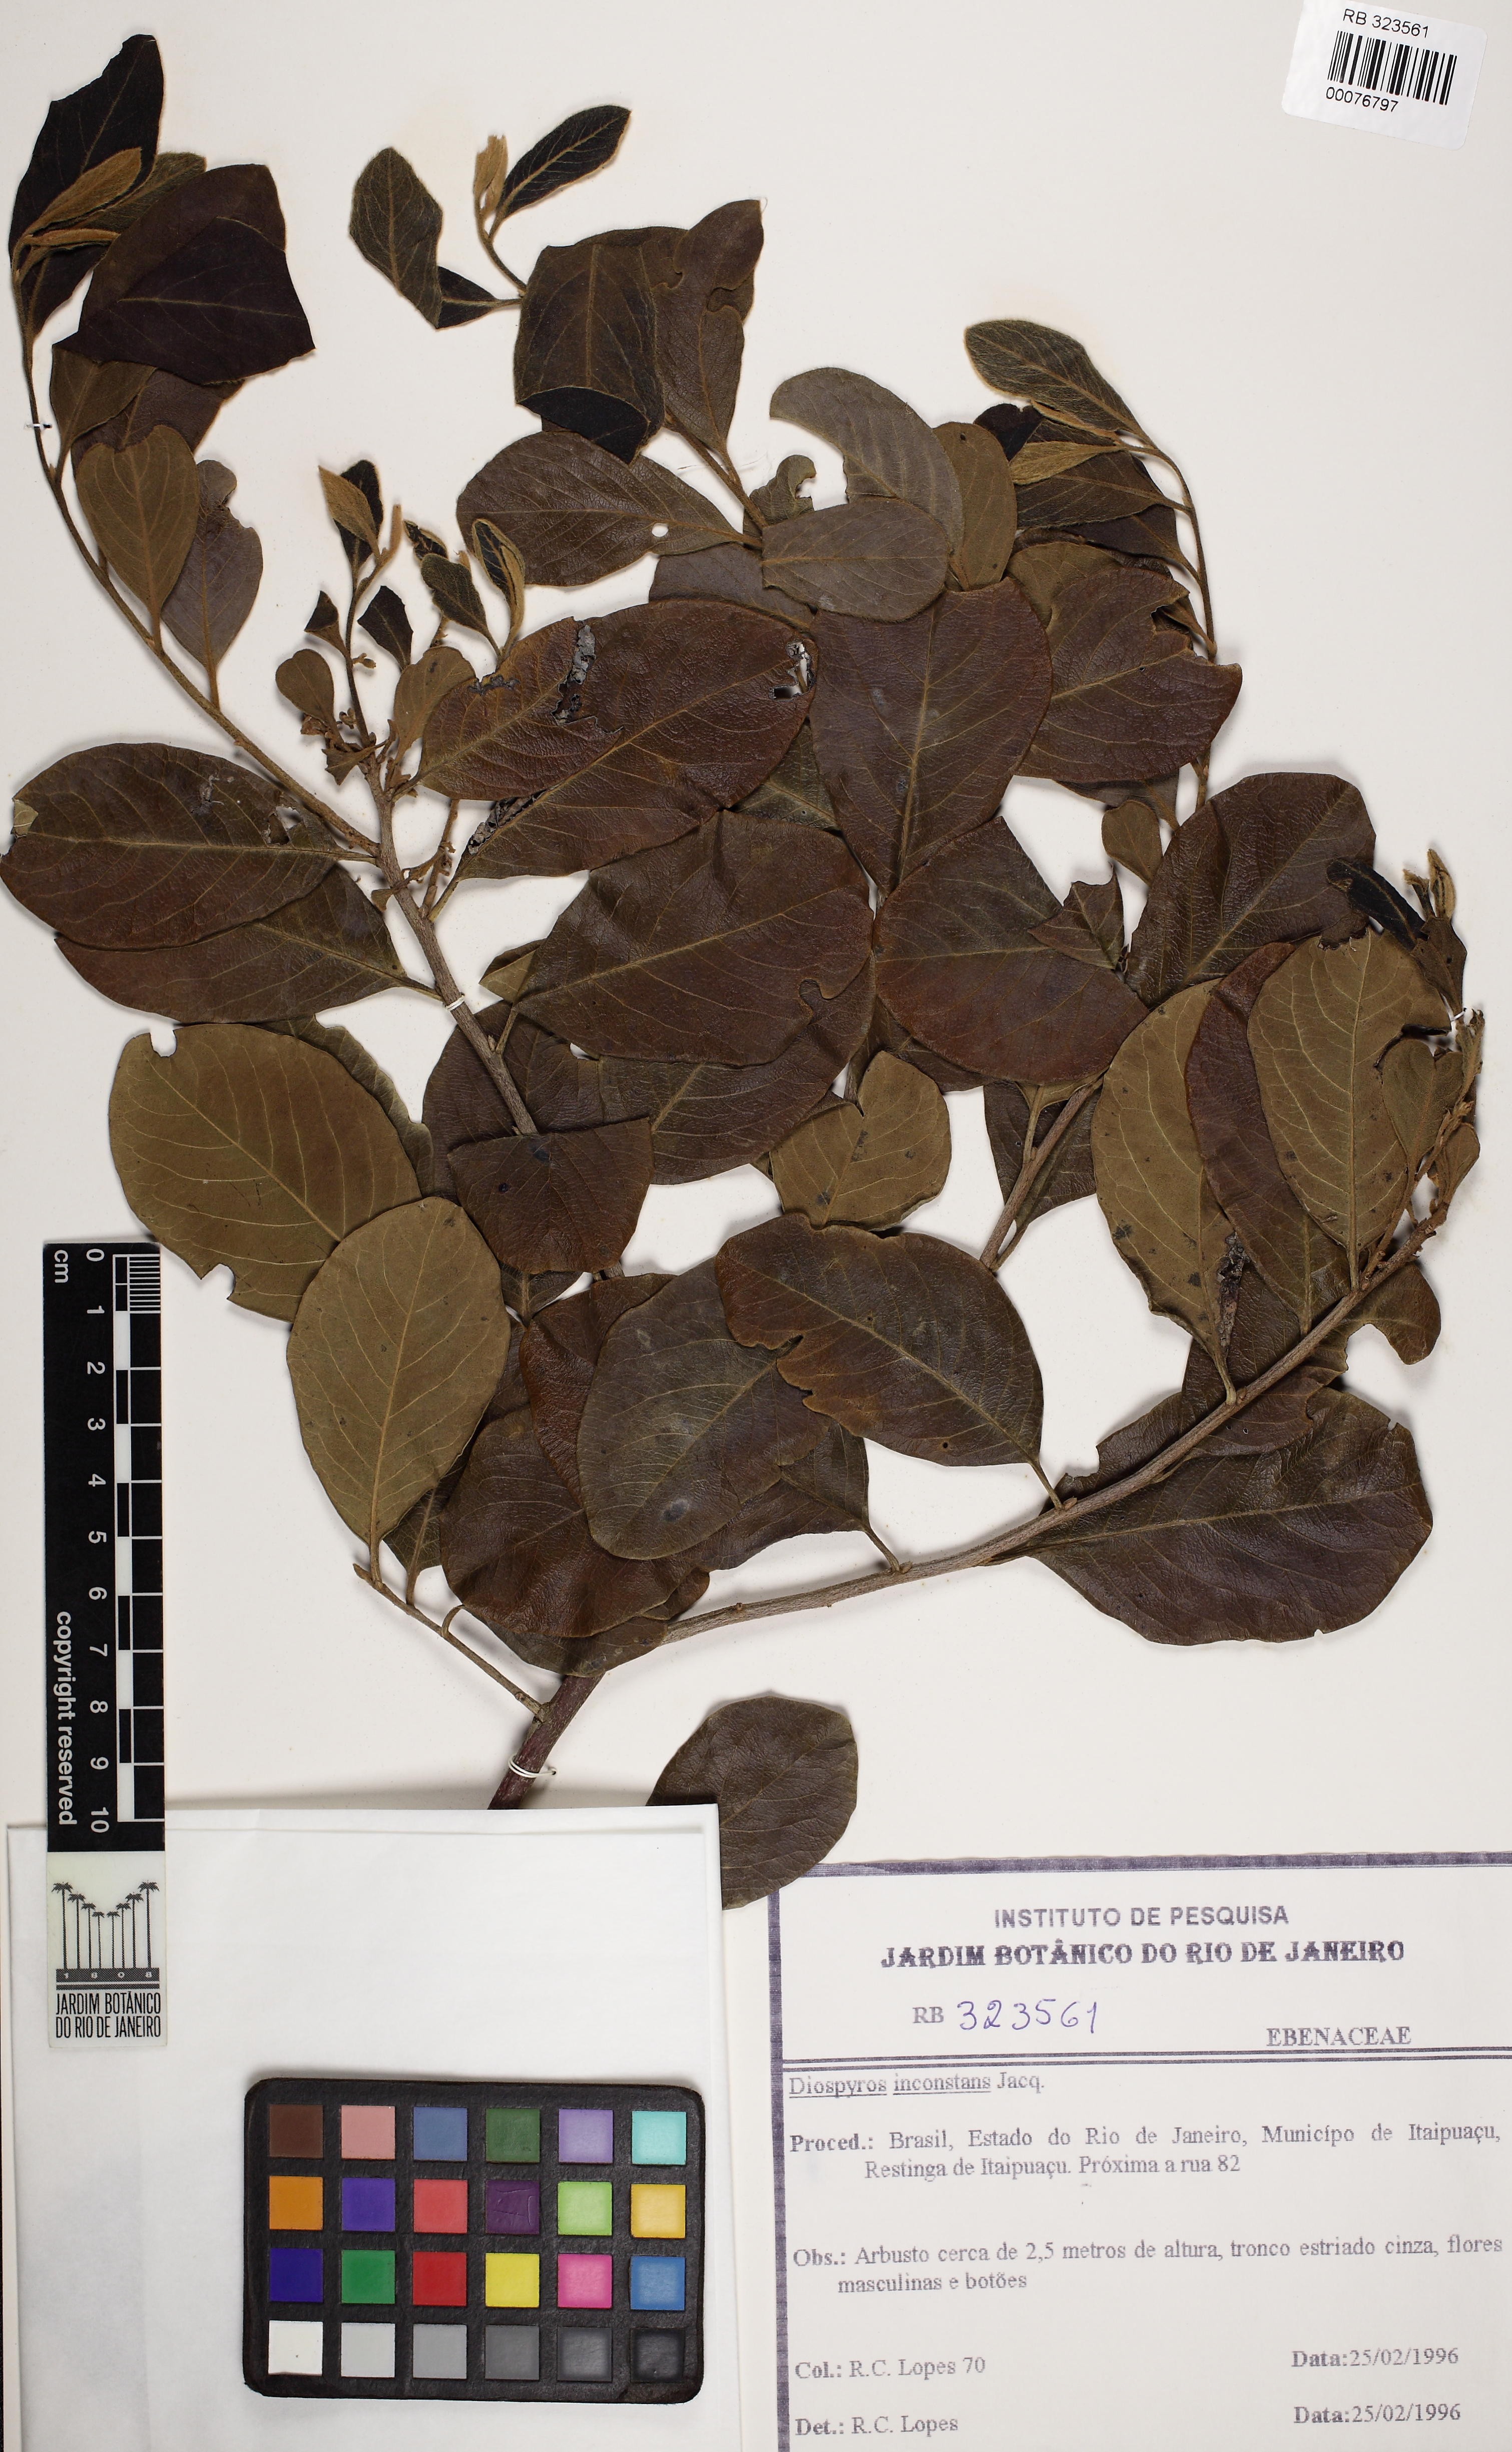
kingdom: Plantae
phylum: Tracheophyta
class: Magnoliopsida
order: Ericales
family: Ebenaceae
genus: Diospyros
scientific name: Diospyros inconstans
